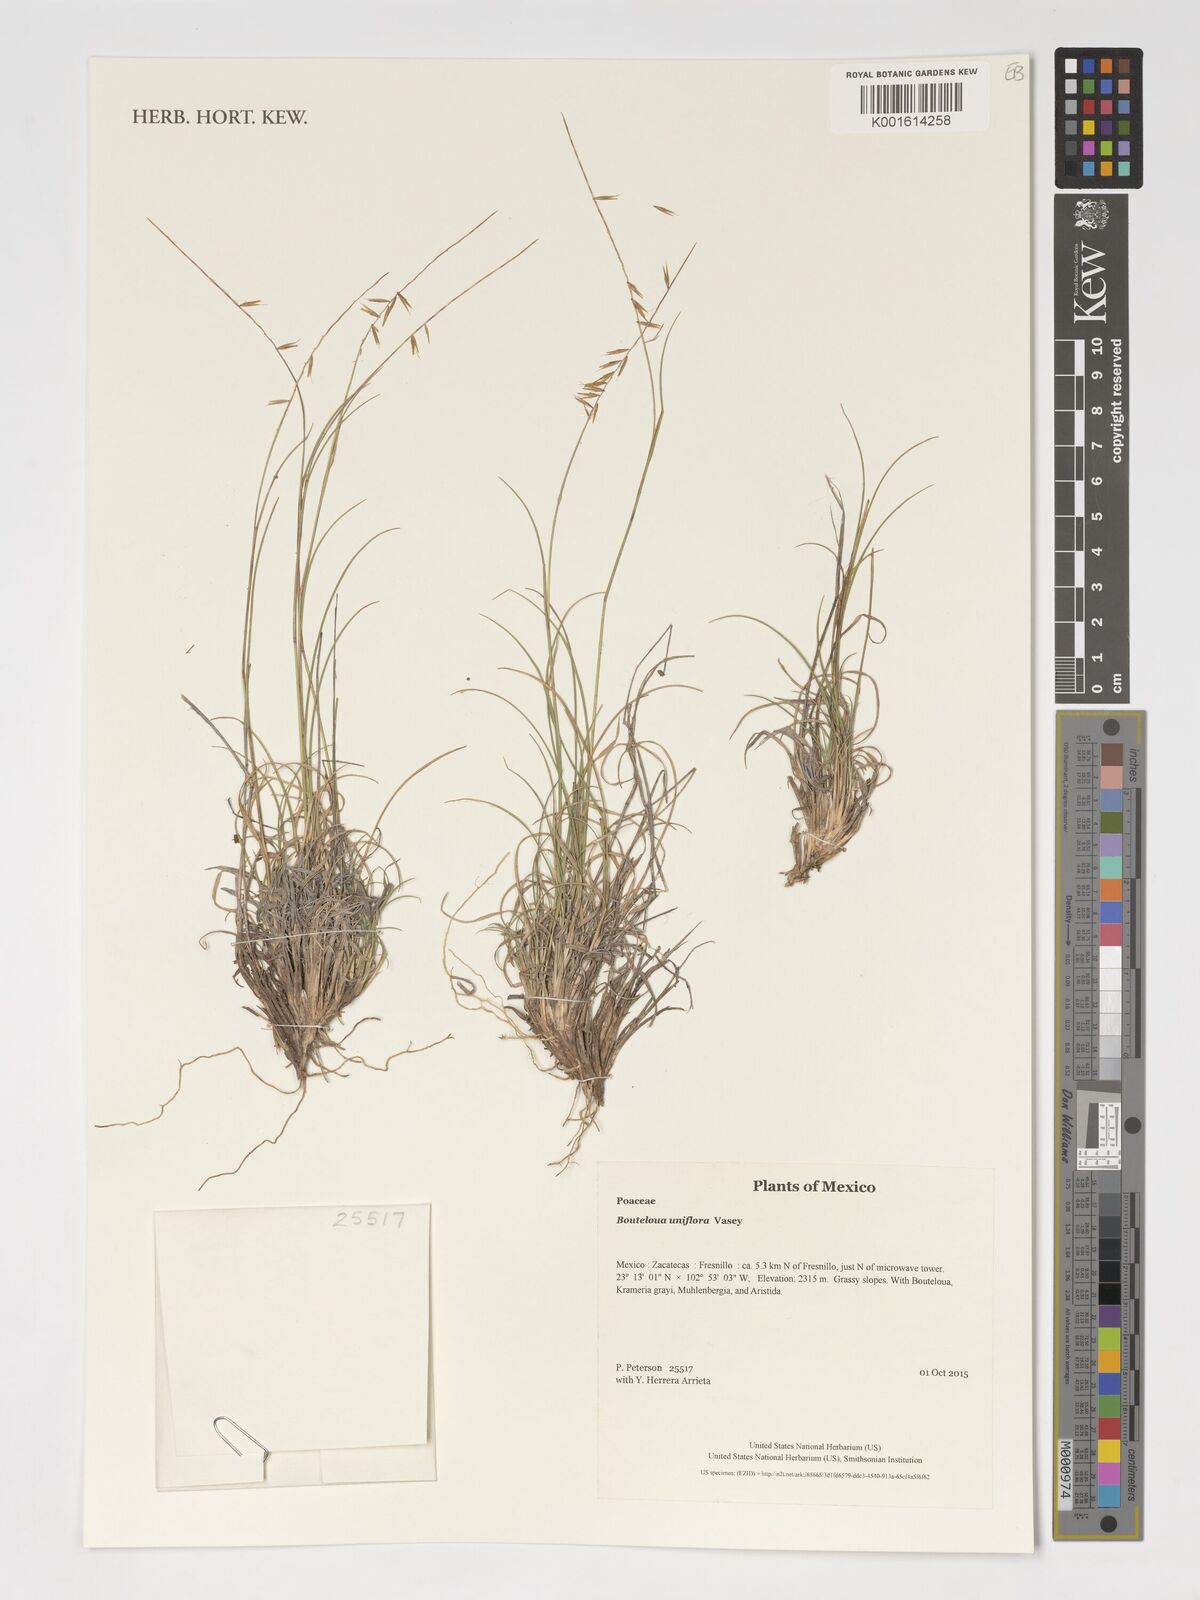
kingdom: Plantae
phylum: Tracheophyta
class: Liliopsida
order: Poales
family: Poaceae
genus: Bouteloua
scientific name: Bouteloua uniflora
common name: Neally's grama
